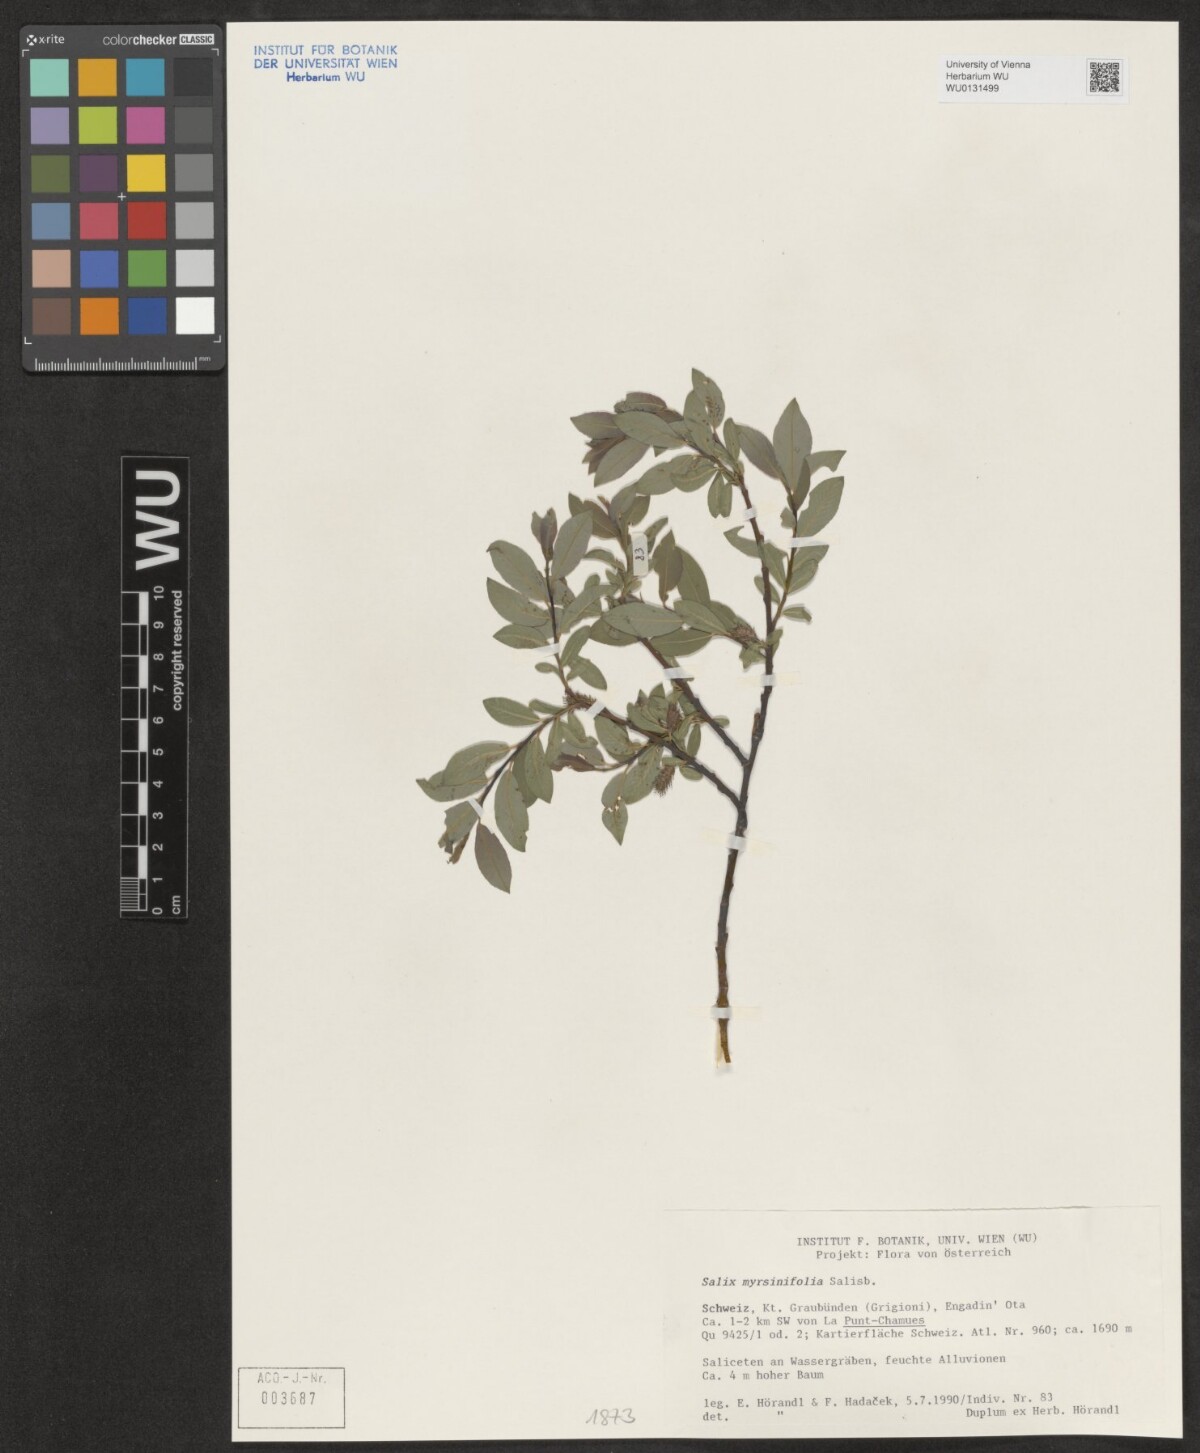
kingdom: Plantae
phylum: Tracheophyta
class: Magnoliopsida
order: Malpighiales
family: Salicaceae
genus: Salix
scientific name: Salix myrsinifolia
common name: Dark-leaved willow
